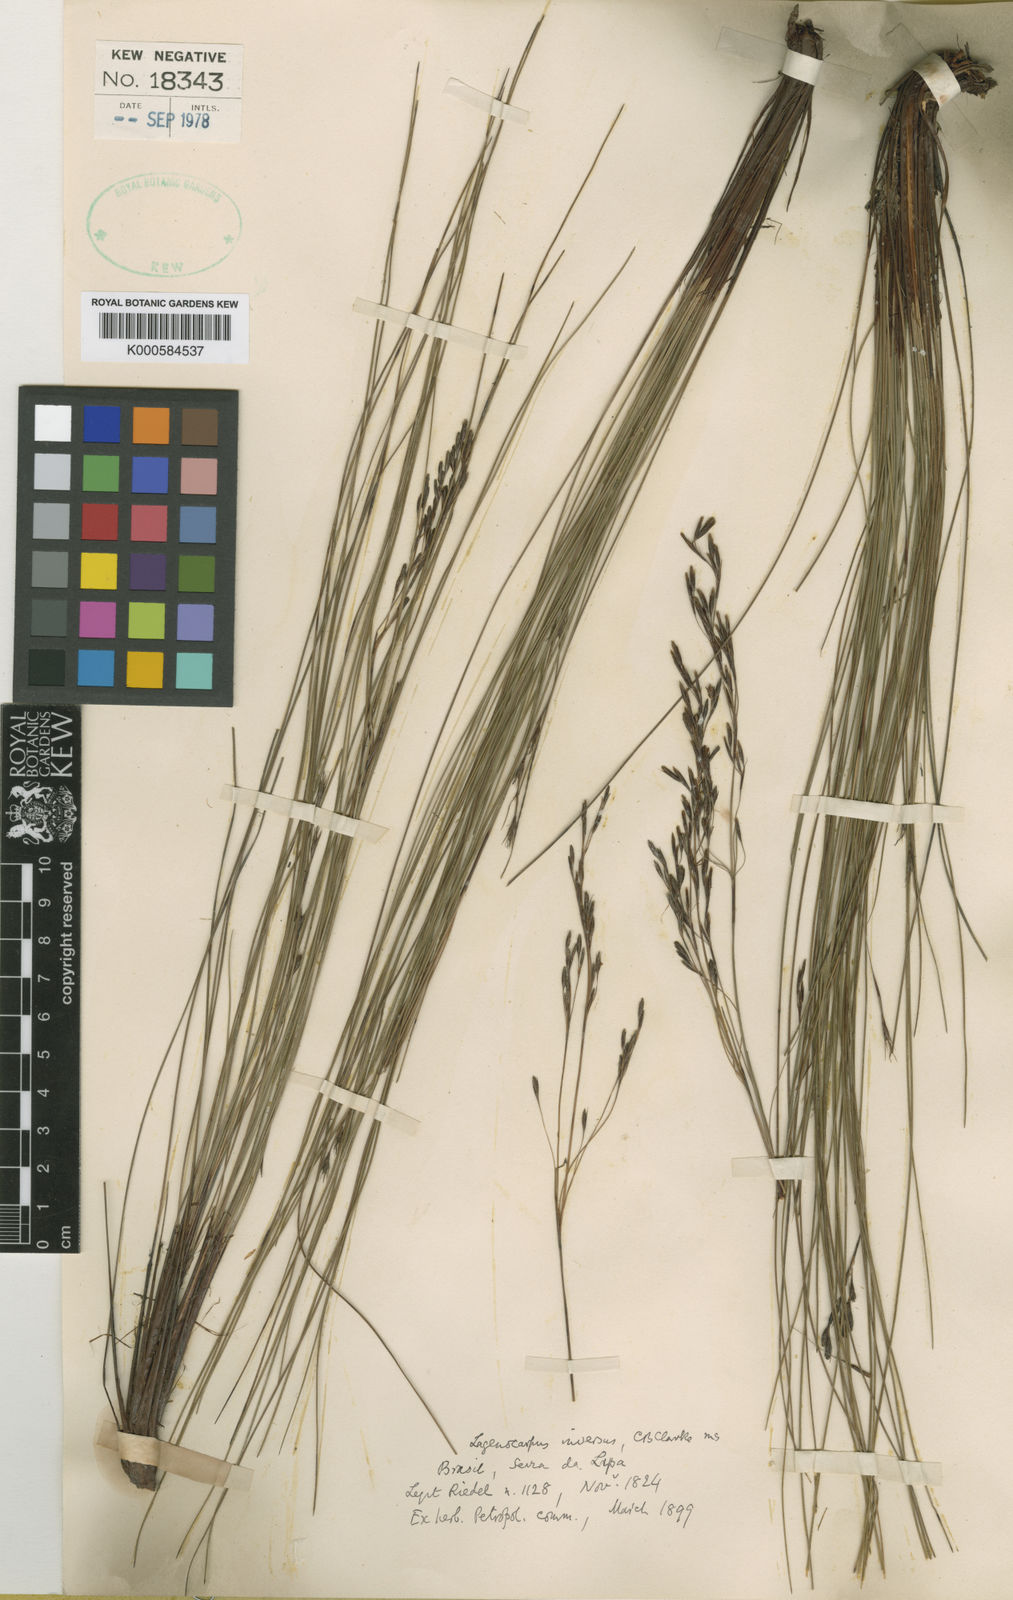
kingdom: Plantae
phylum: Tracheophyta
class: Liliopsida
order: Poales
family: Cyperaceae
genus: Lagenocarpus
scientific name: Lagenocarpus rigidus
